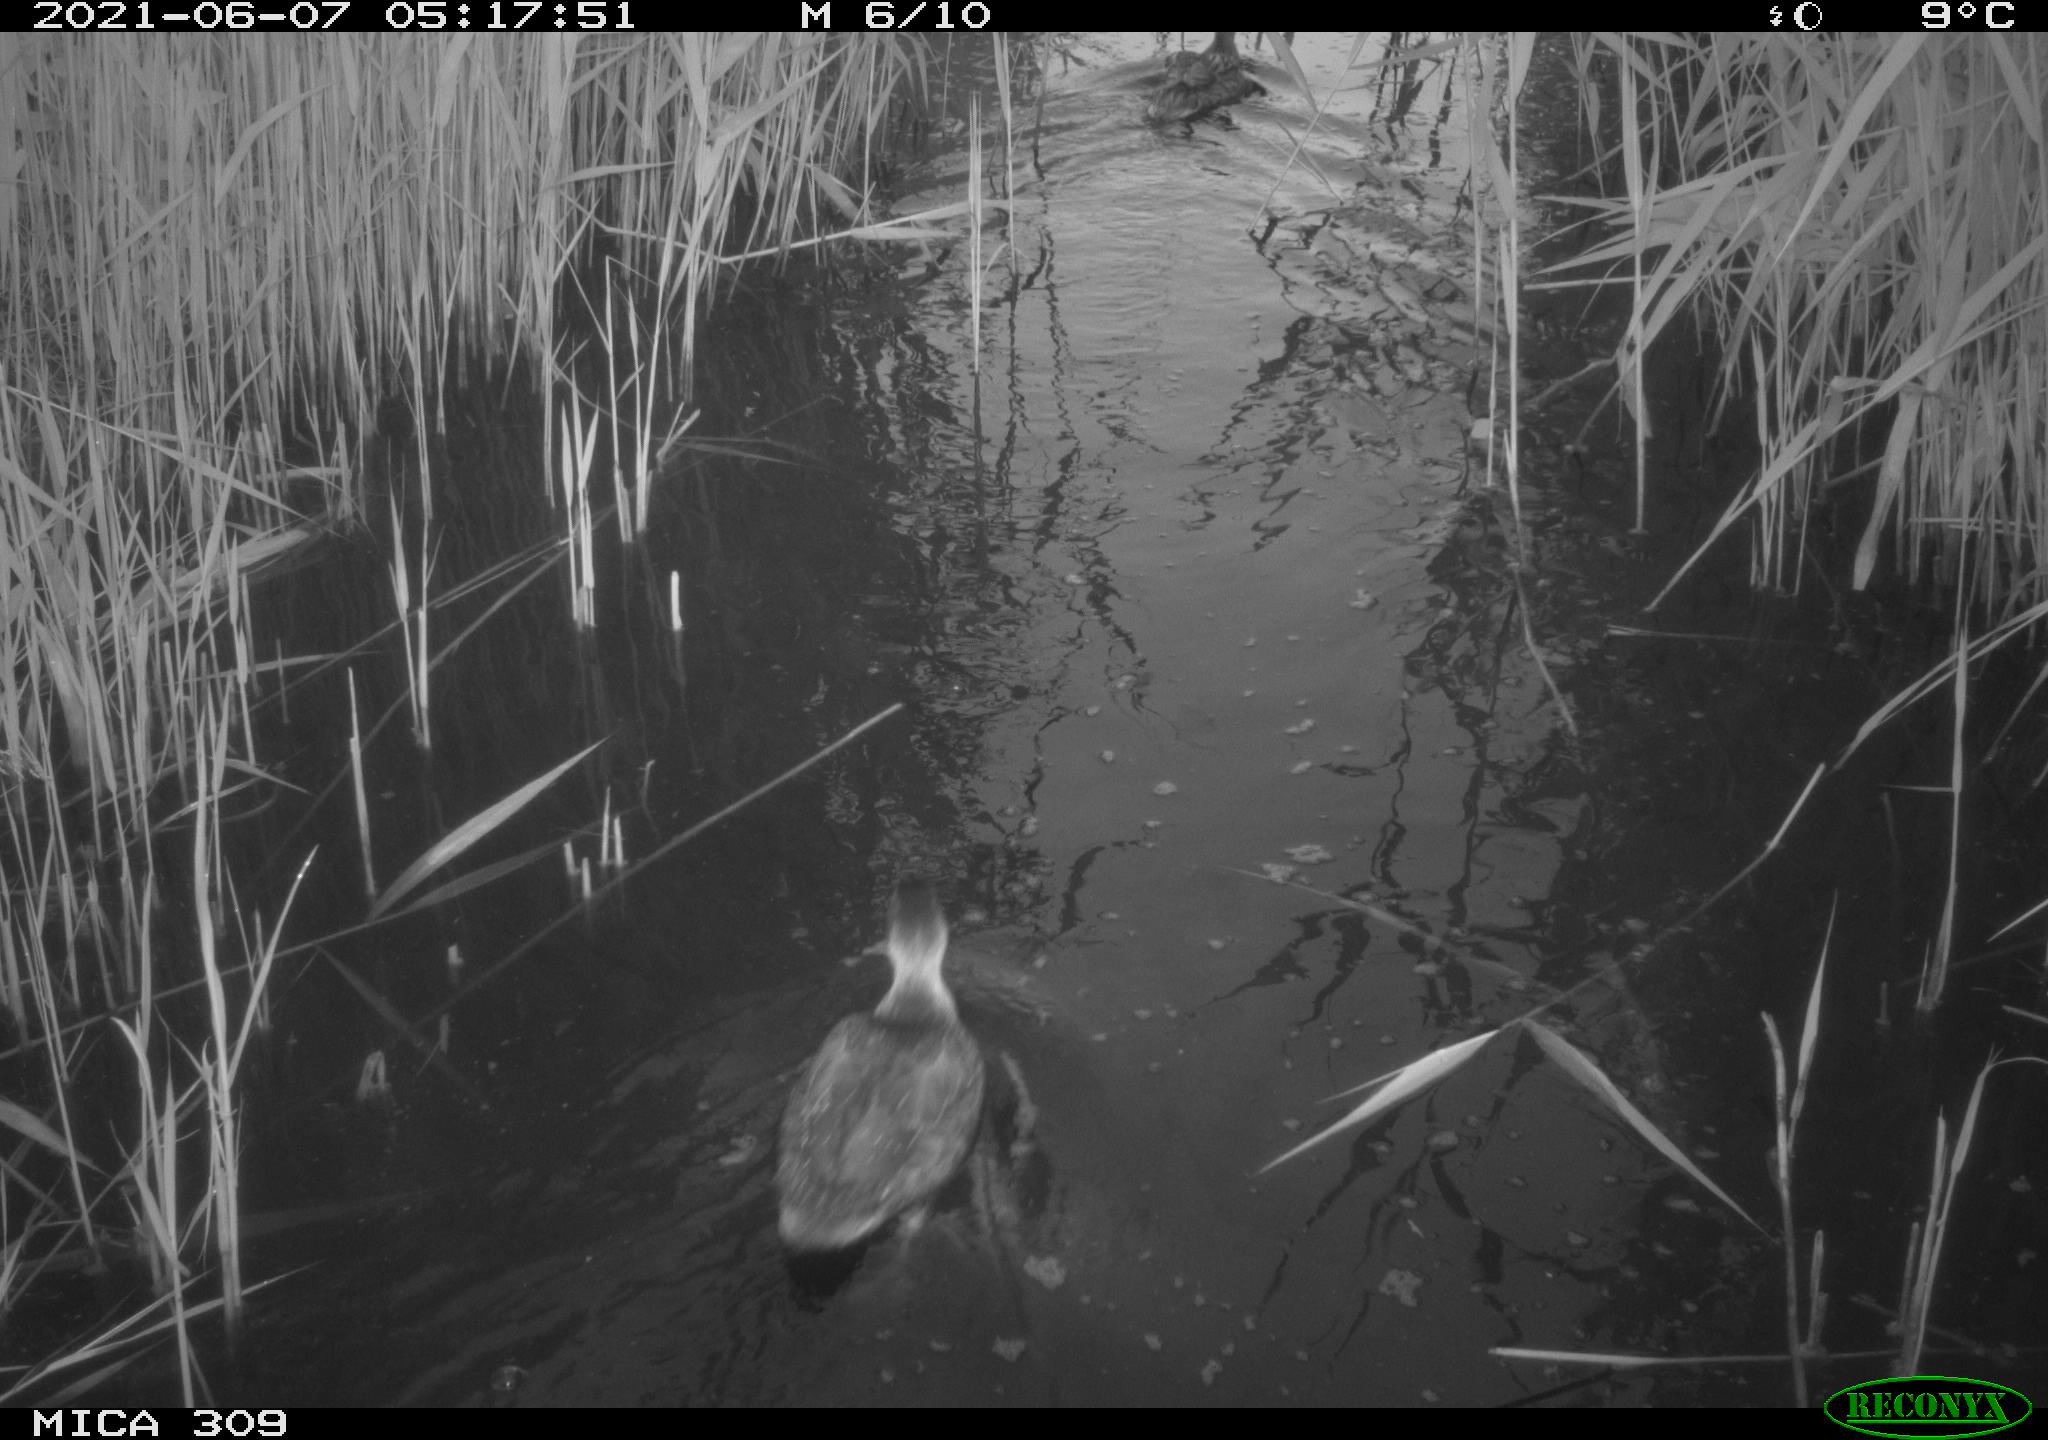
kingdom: Animalia
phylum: Chordata
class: Aves
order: Anseriformes
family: Anatidae
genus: Anas
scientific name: Anas platyrhynchos
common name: Mallard
